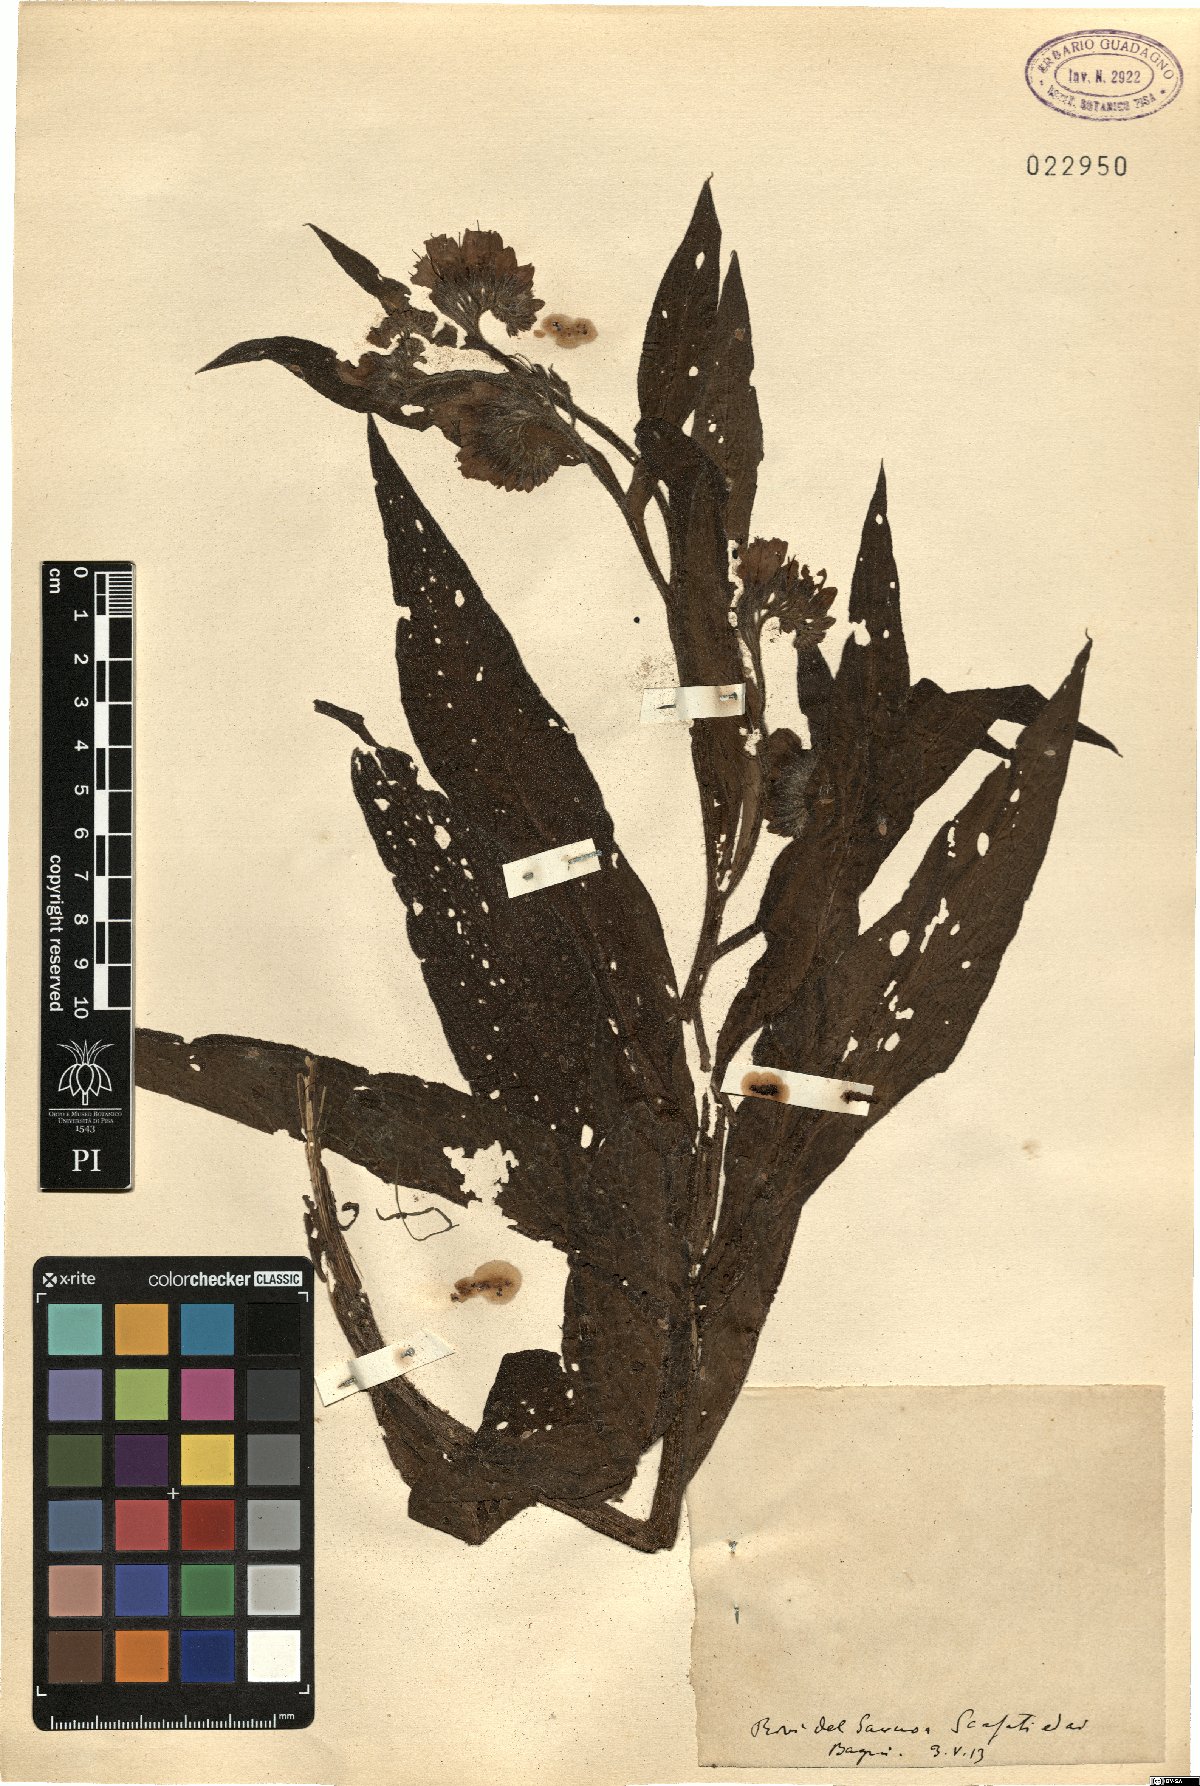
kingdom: Plantae
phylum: Tracheophyta
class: Magnoliopsida
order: Boraginales
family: Boraginaceae
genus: Symphytum
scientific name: Symphytum
